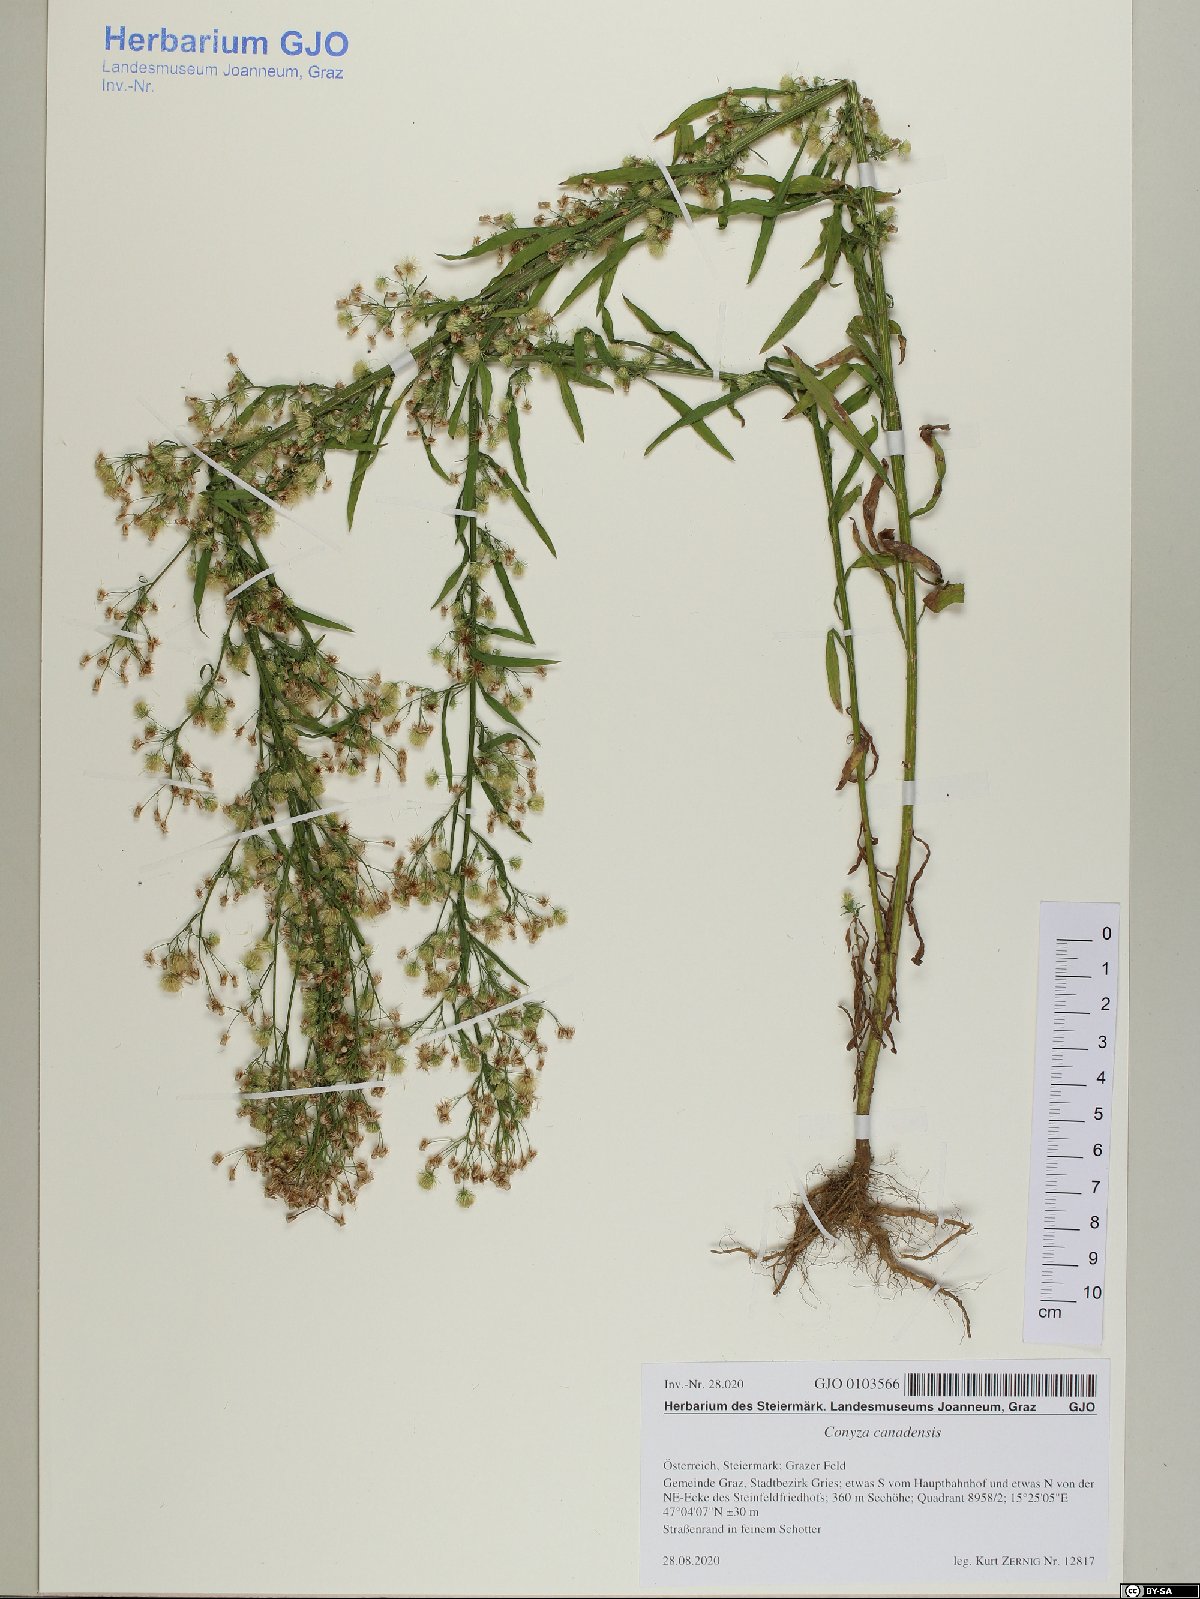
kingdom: Plantae
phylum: Tracheophyta
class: Magnoliopsida
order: Asterales
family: Asteraceae
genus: Erigeron
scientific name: Erigeron canadensis
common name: Canadian fleabane
